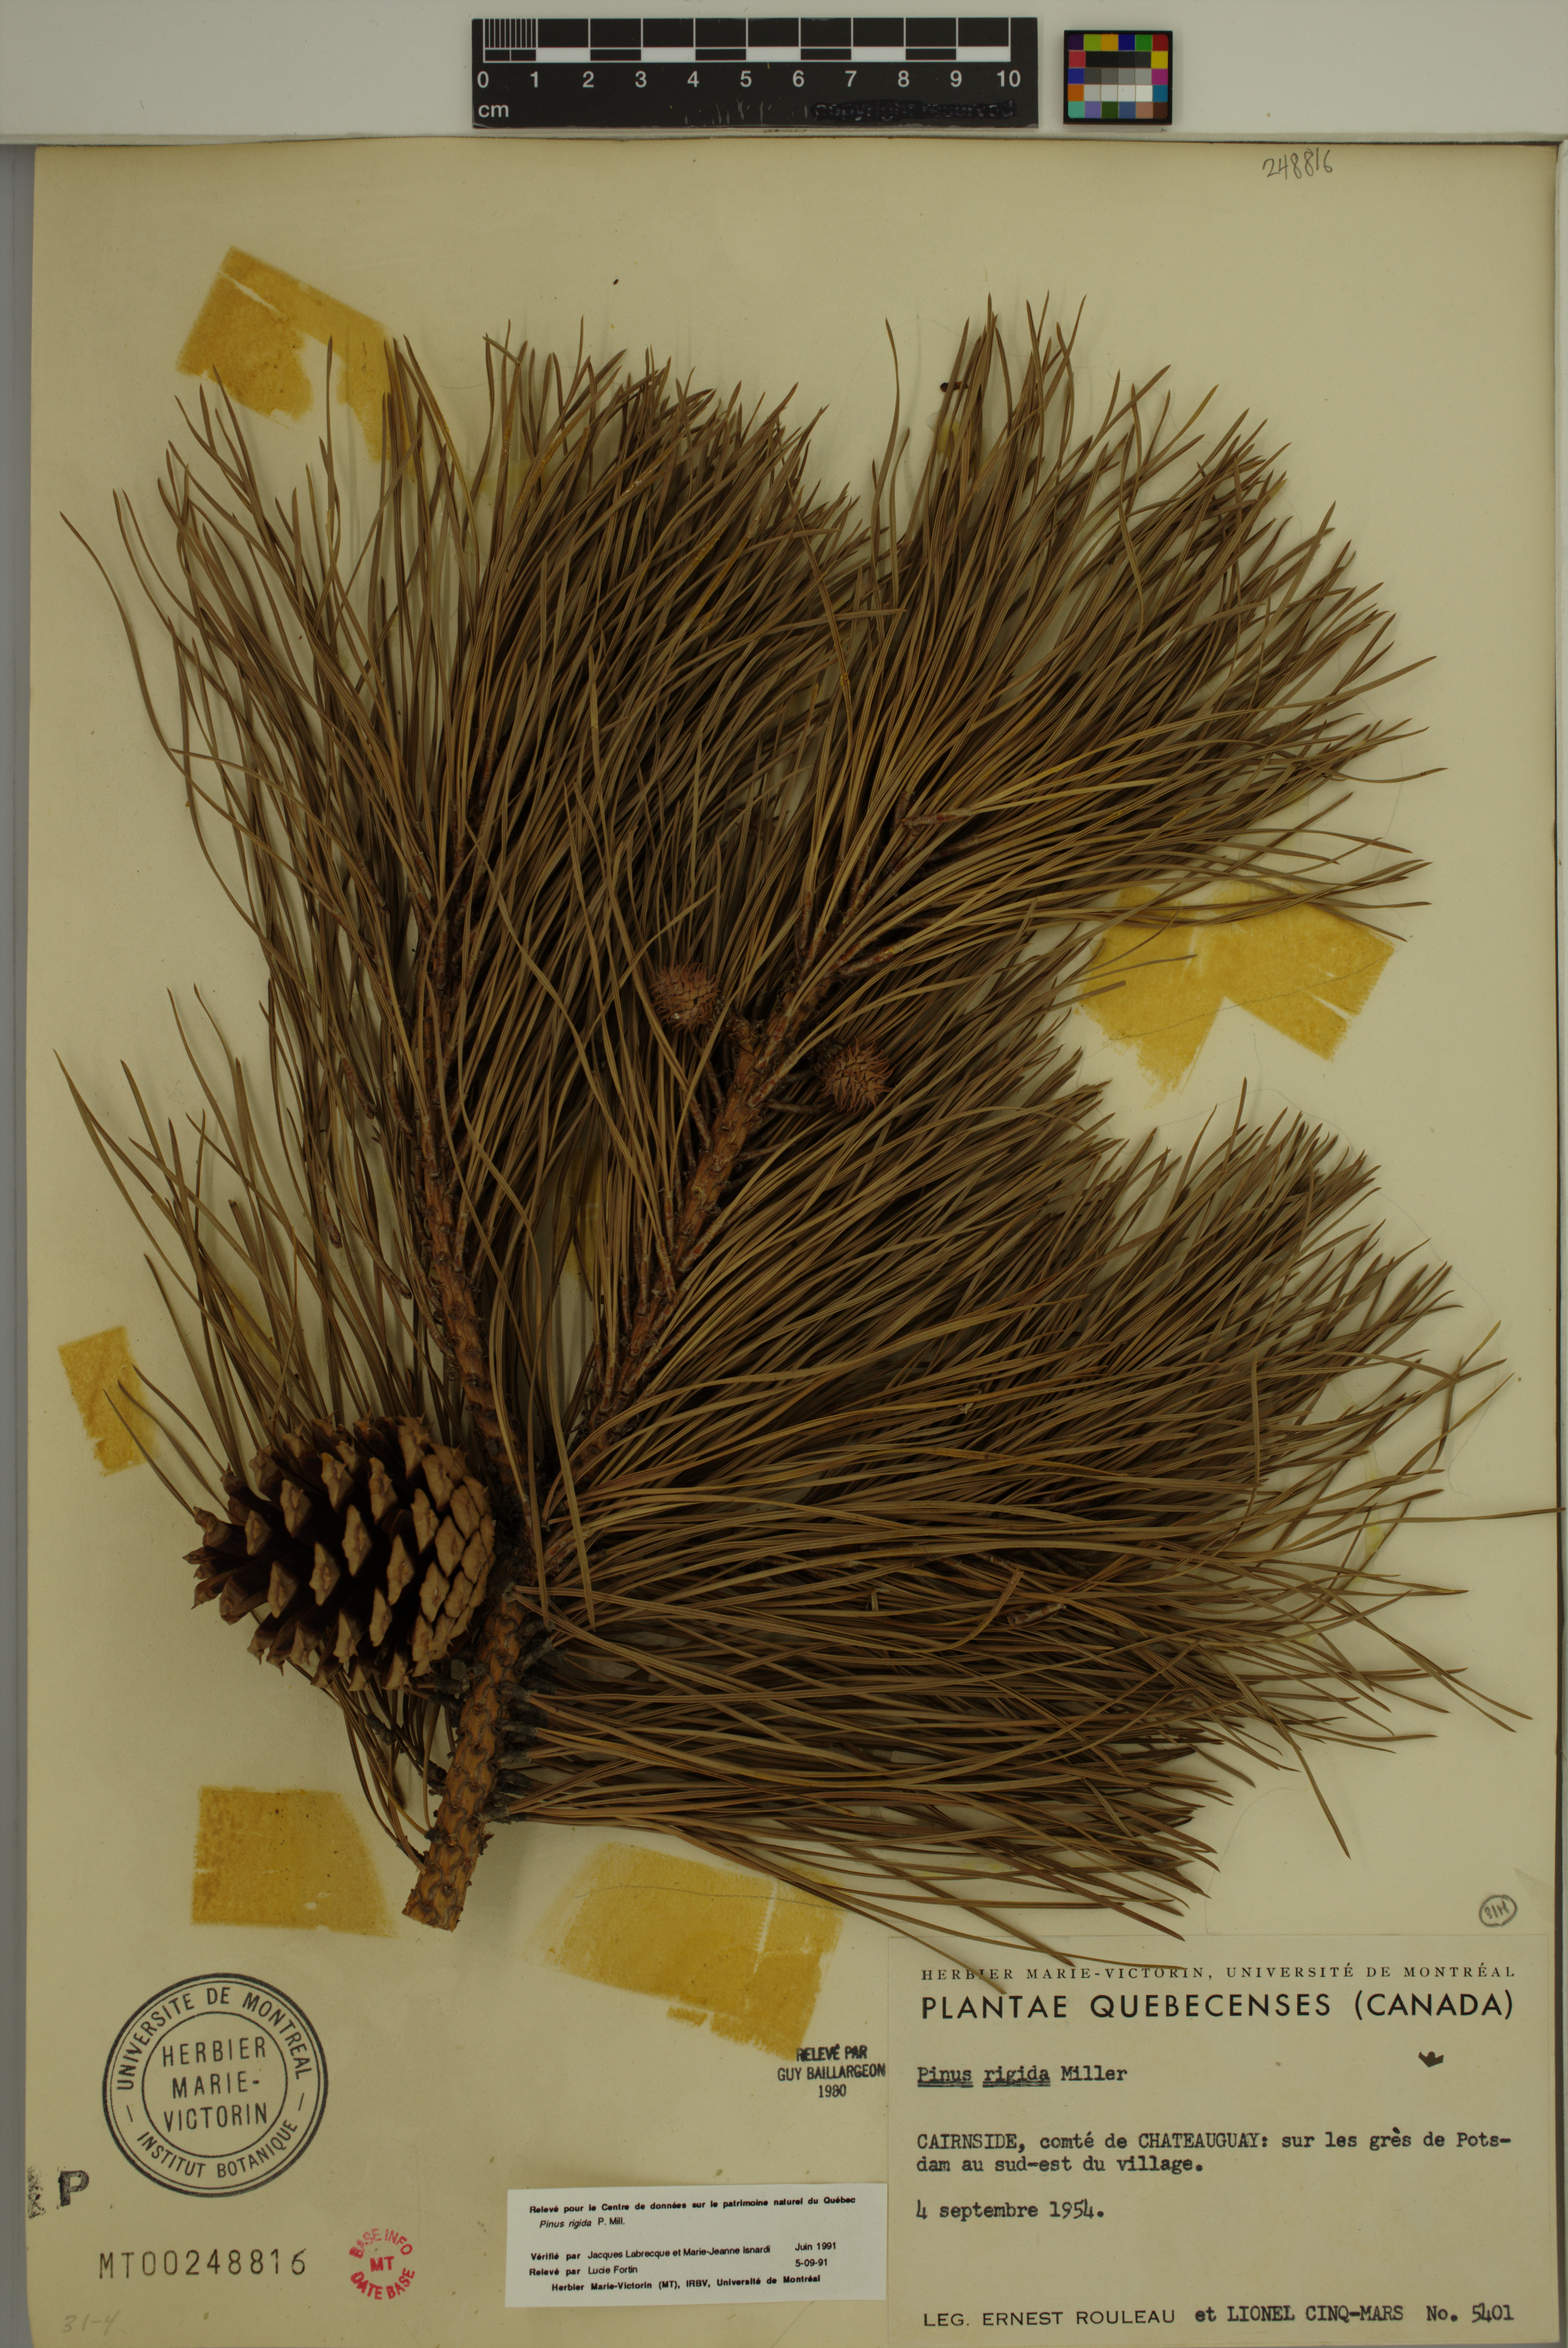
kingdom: Plantae
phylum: Tracheophyta
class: Pinopsida
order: Pinales
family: Pinaceae
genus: Pinus
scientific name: Pinus rigida
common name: Pitch pine
